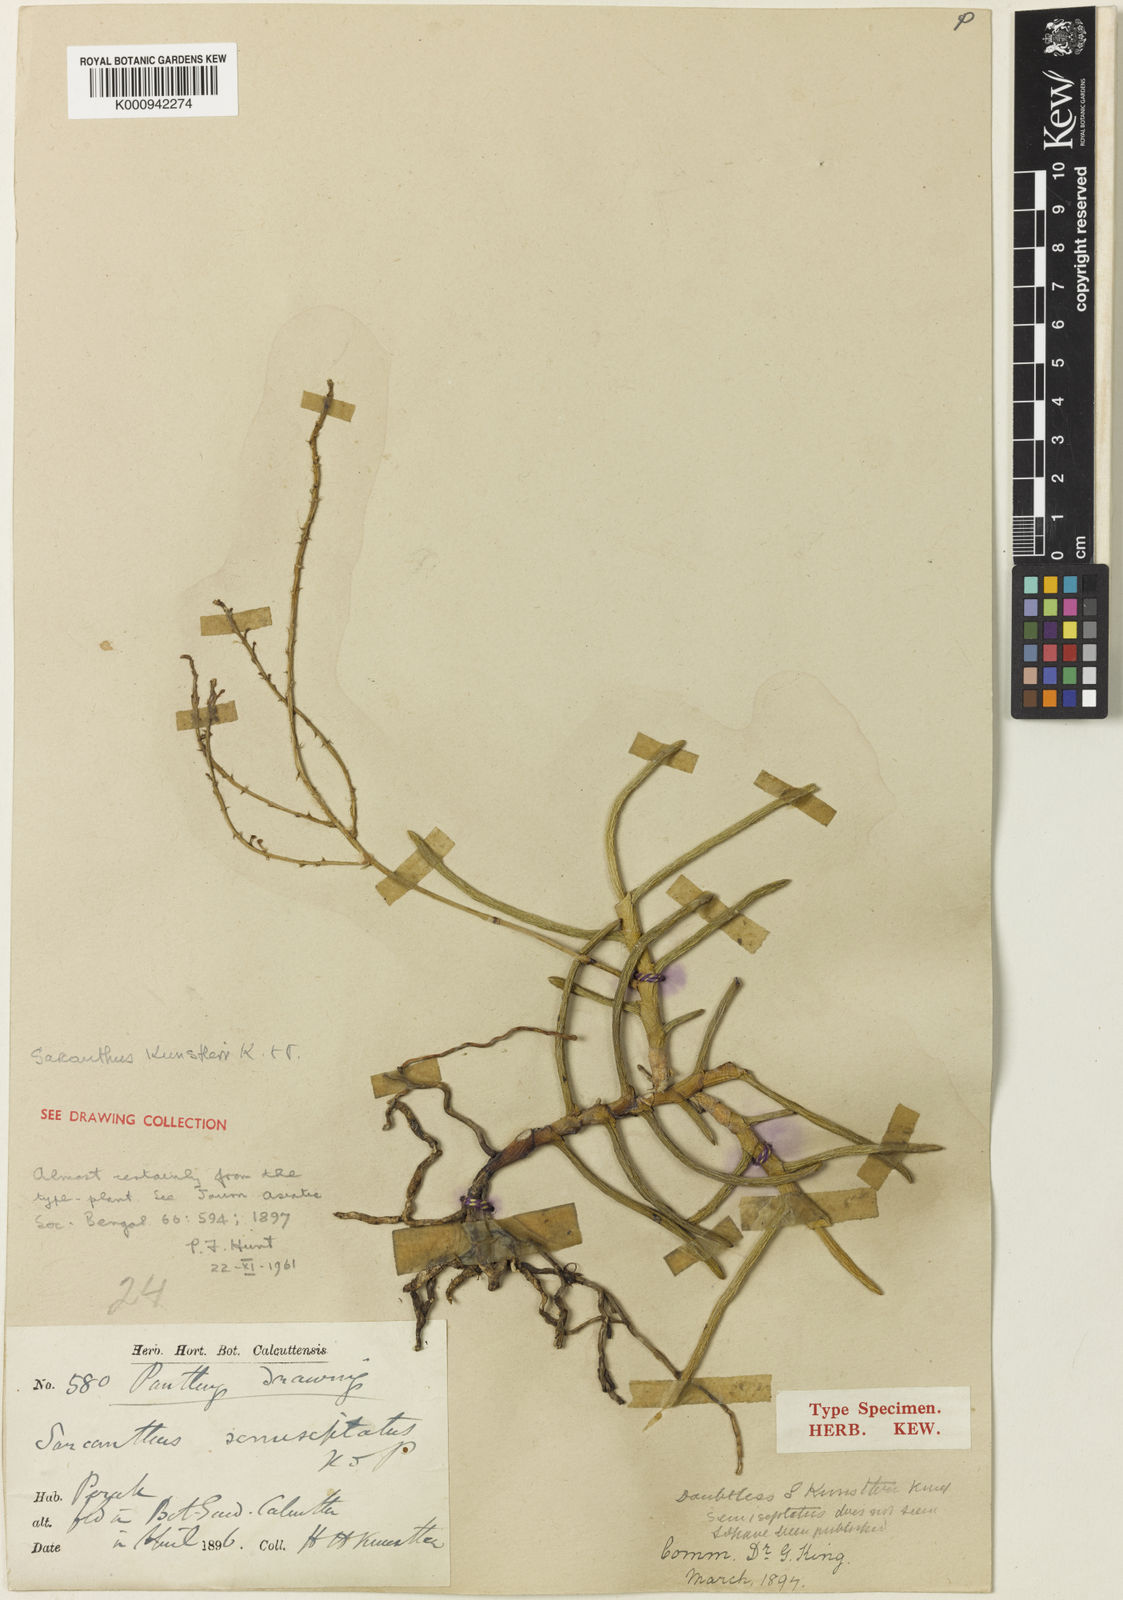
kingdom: Plantae
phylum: Tracheophyta
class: Liliopsida
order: Asparagales
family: Orchidaceae
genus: Cleisostoma
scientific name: Cleisostoma arietinum
